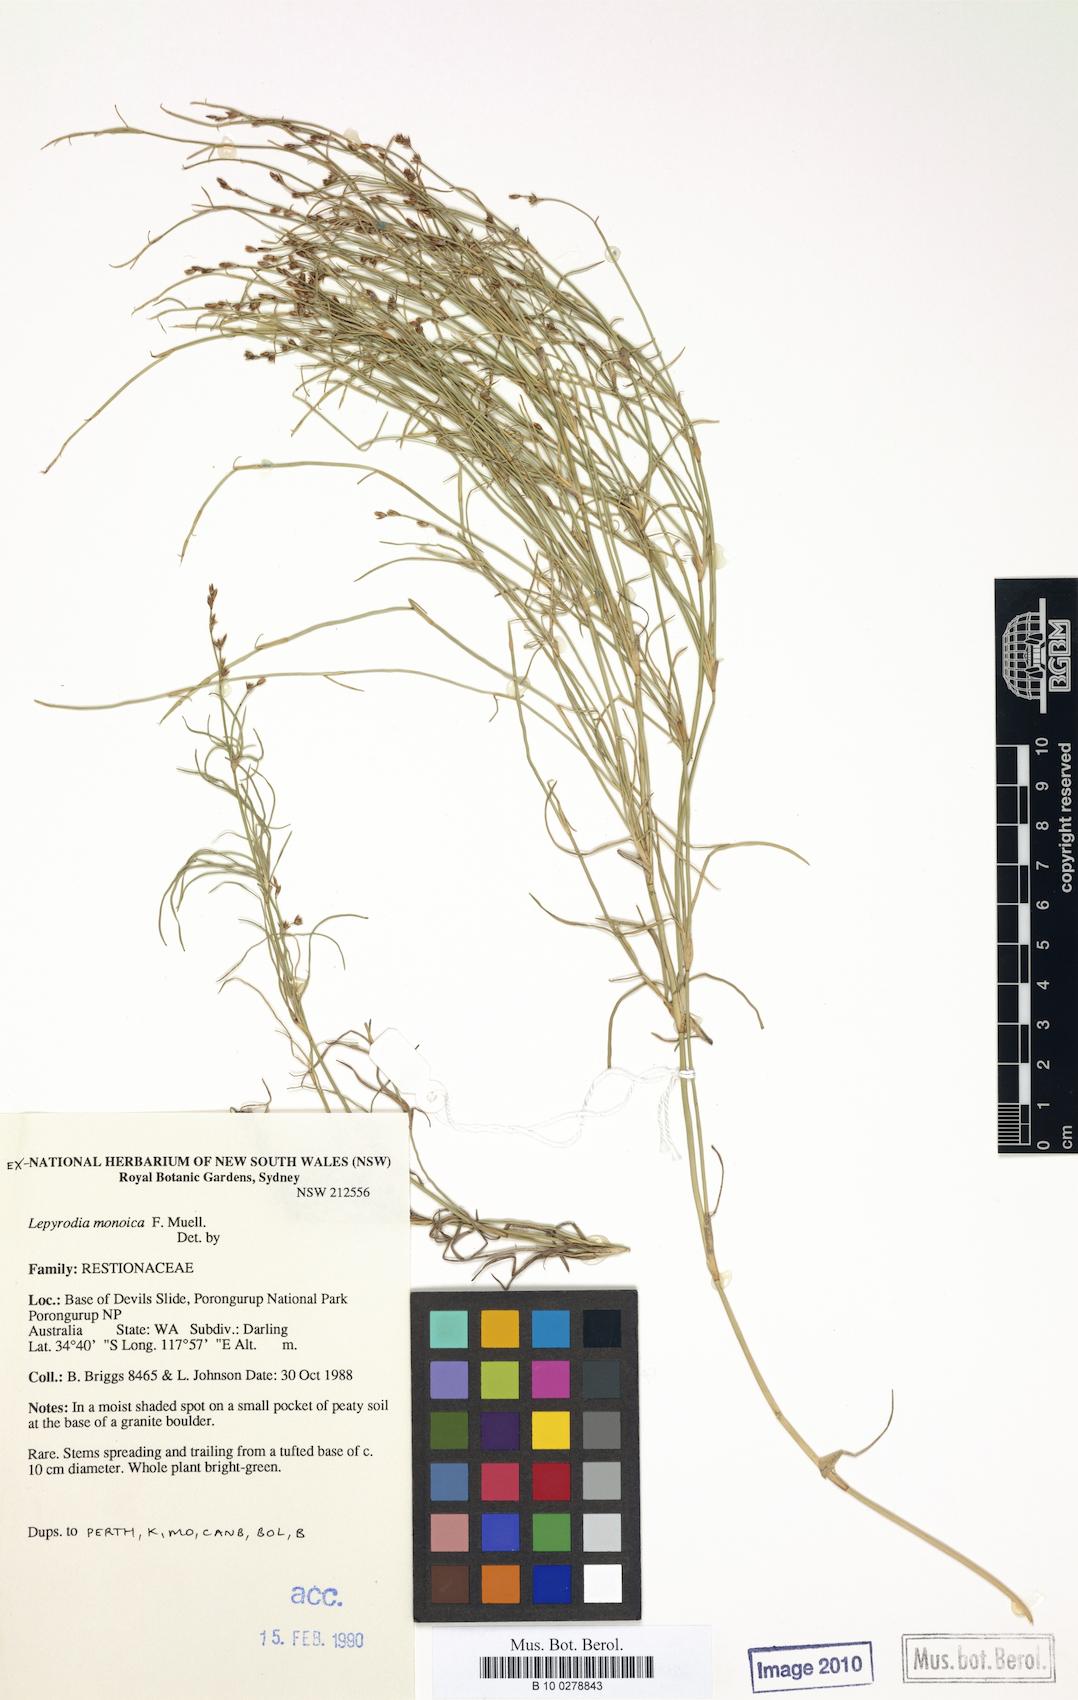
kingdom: Plantae
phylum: Tracheophyta
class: Liliopsida
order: Poales
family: Restionaceae
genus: Lepyrodia
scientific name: Lepyrodia monoica
